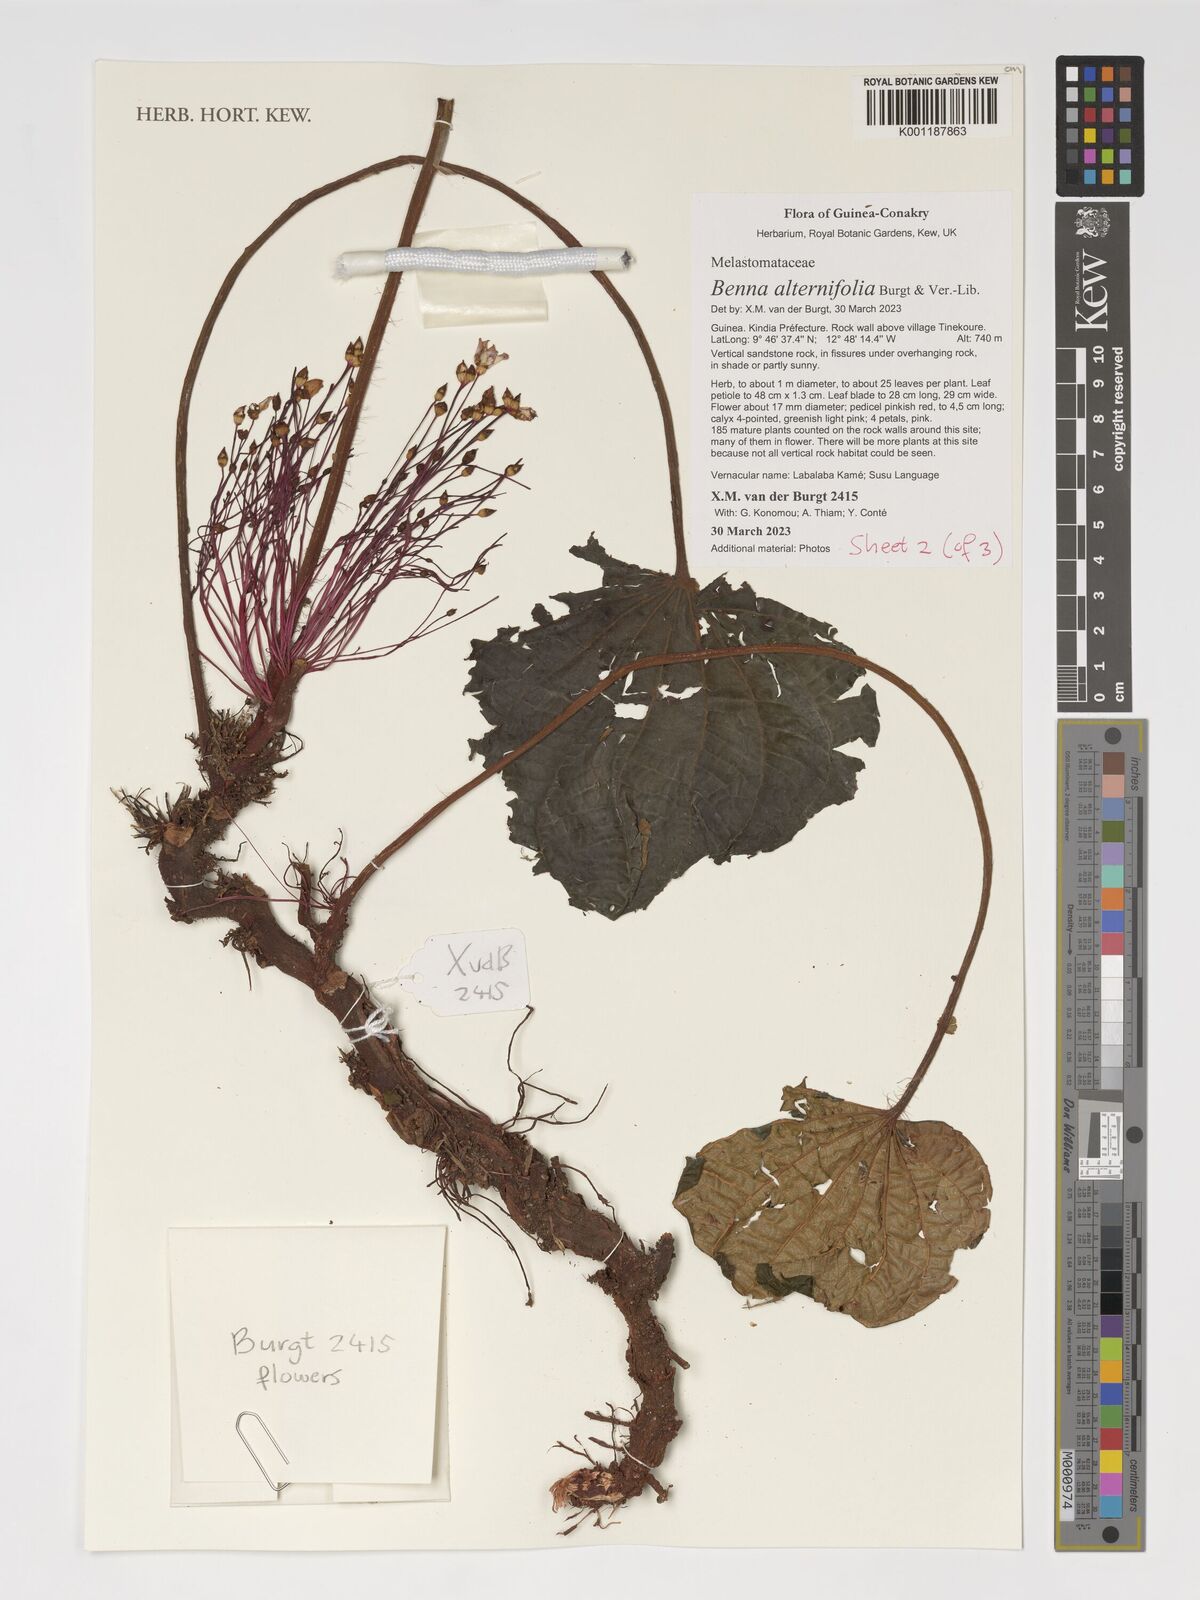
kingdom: Plantae
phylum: Tracheophyta
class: Magnoliopsida
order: Myrtales
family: Melastomataceae
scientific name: Melastomataceae
